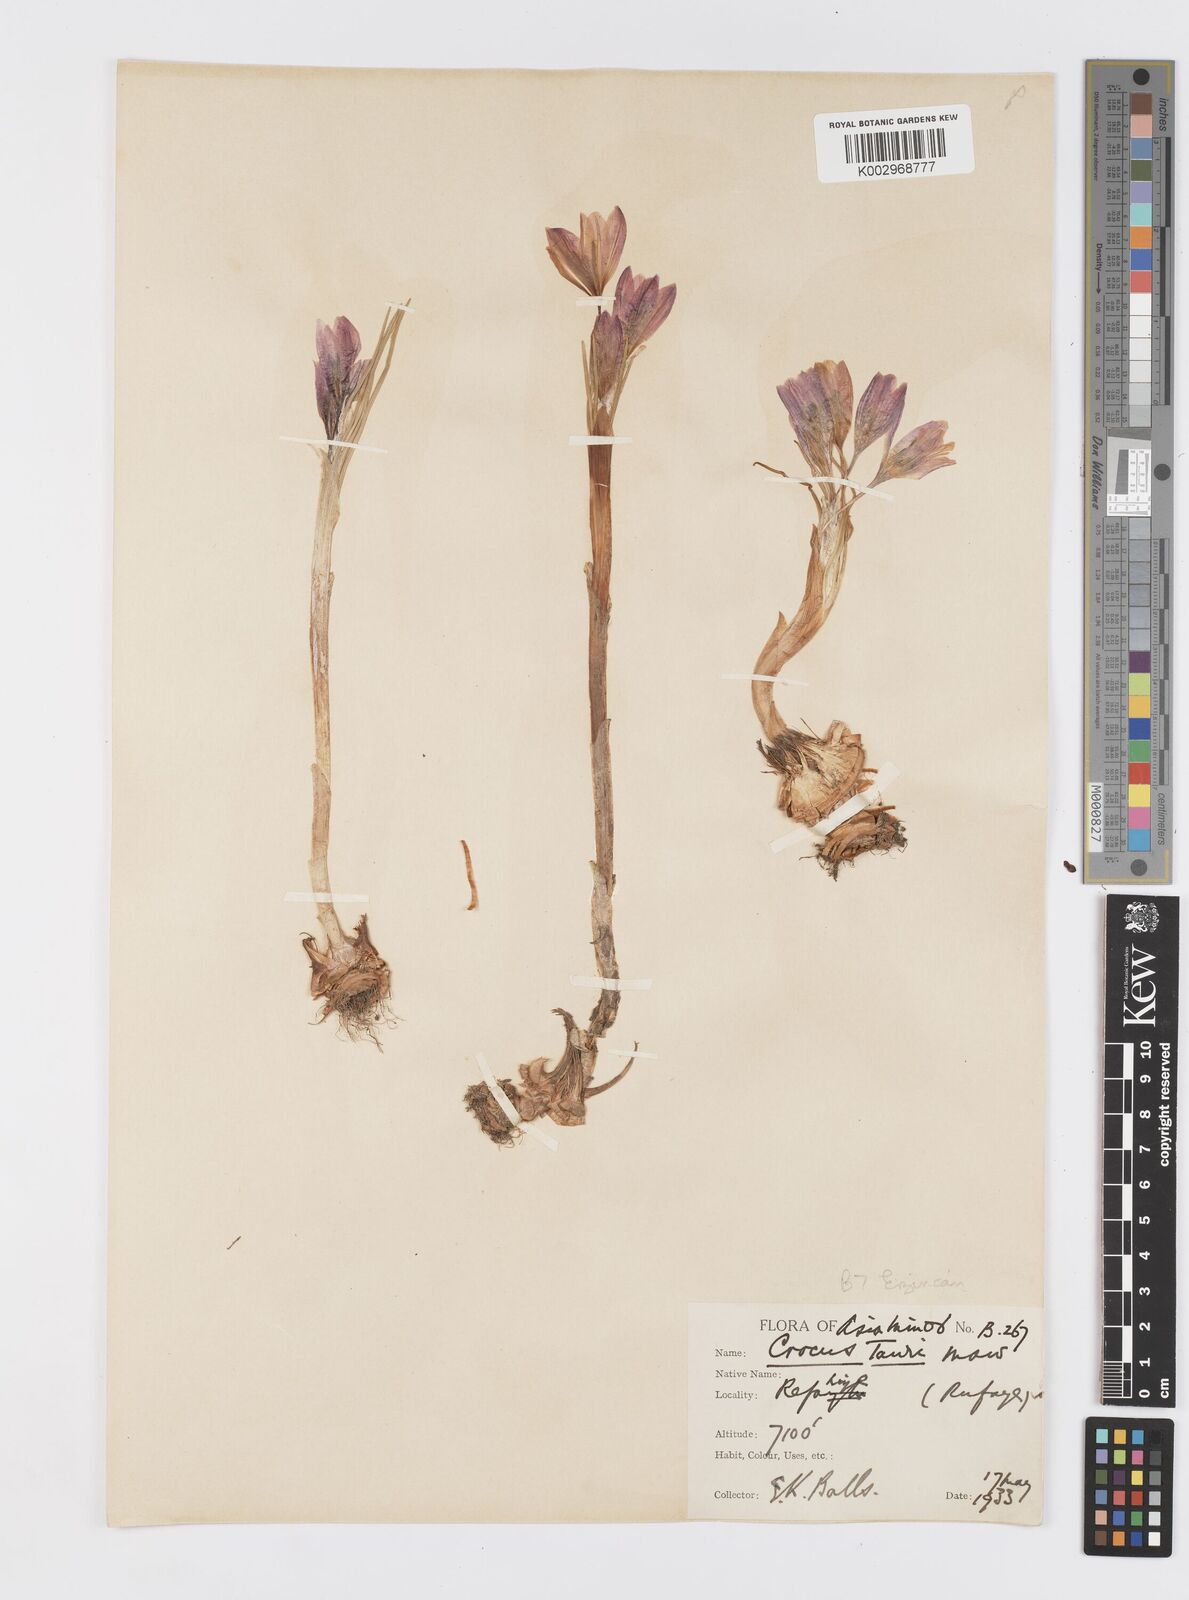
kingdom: Plantae
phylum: Tracheophyta
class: Liliopsida
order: Asparagales
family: Iridaceae
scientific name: Iridaceae
